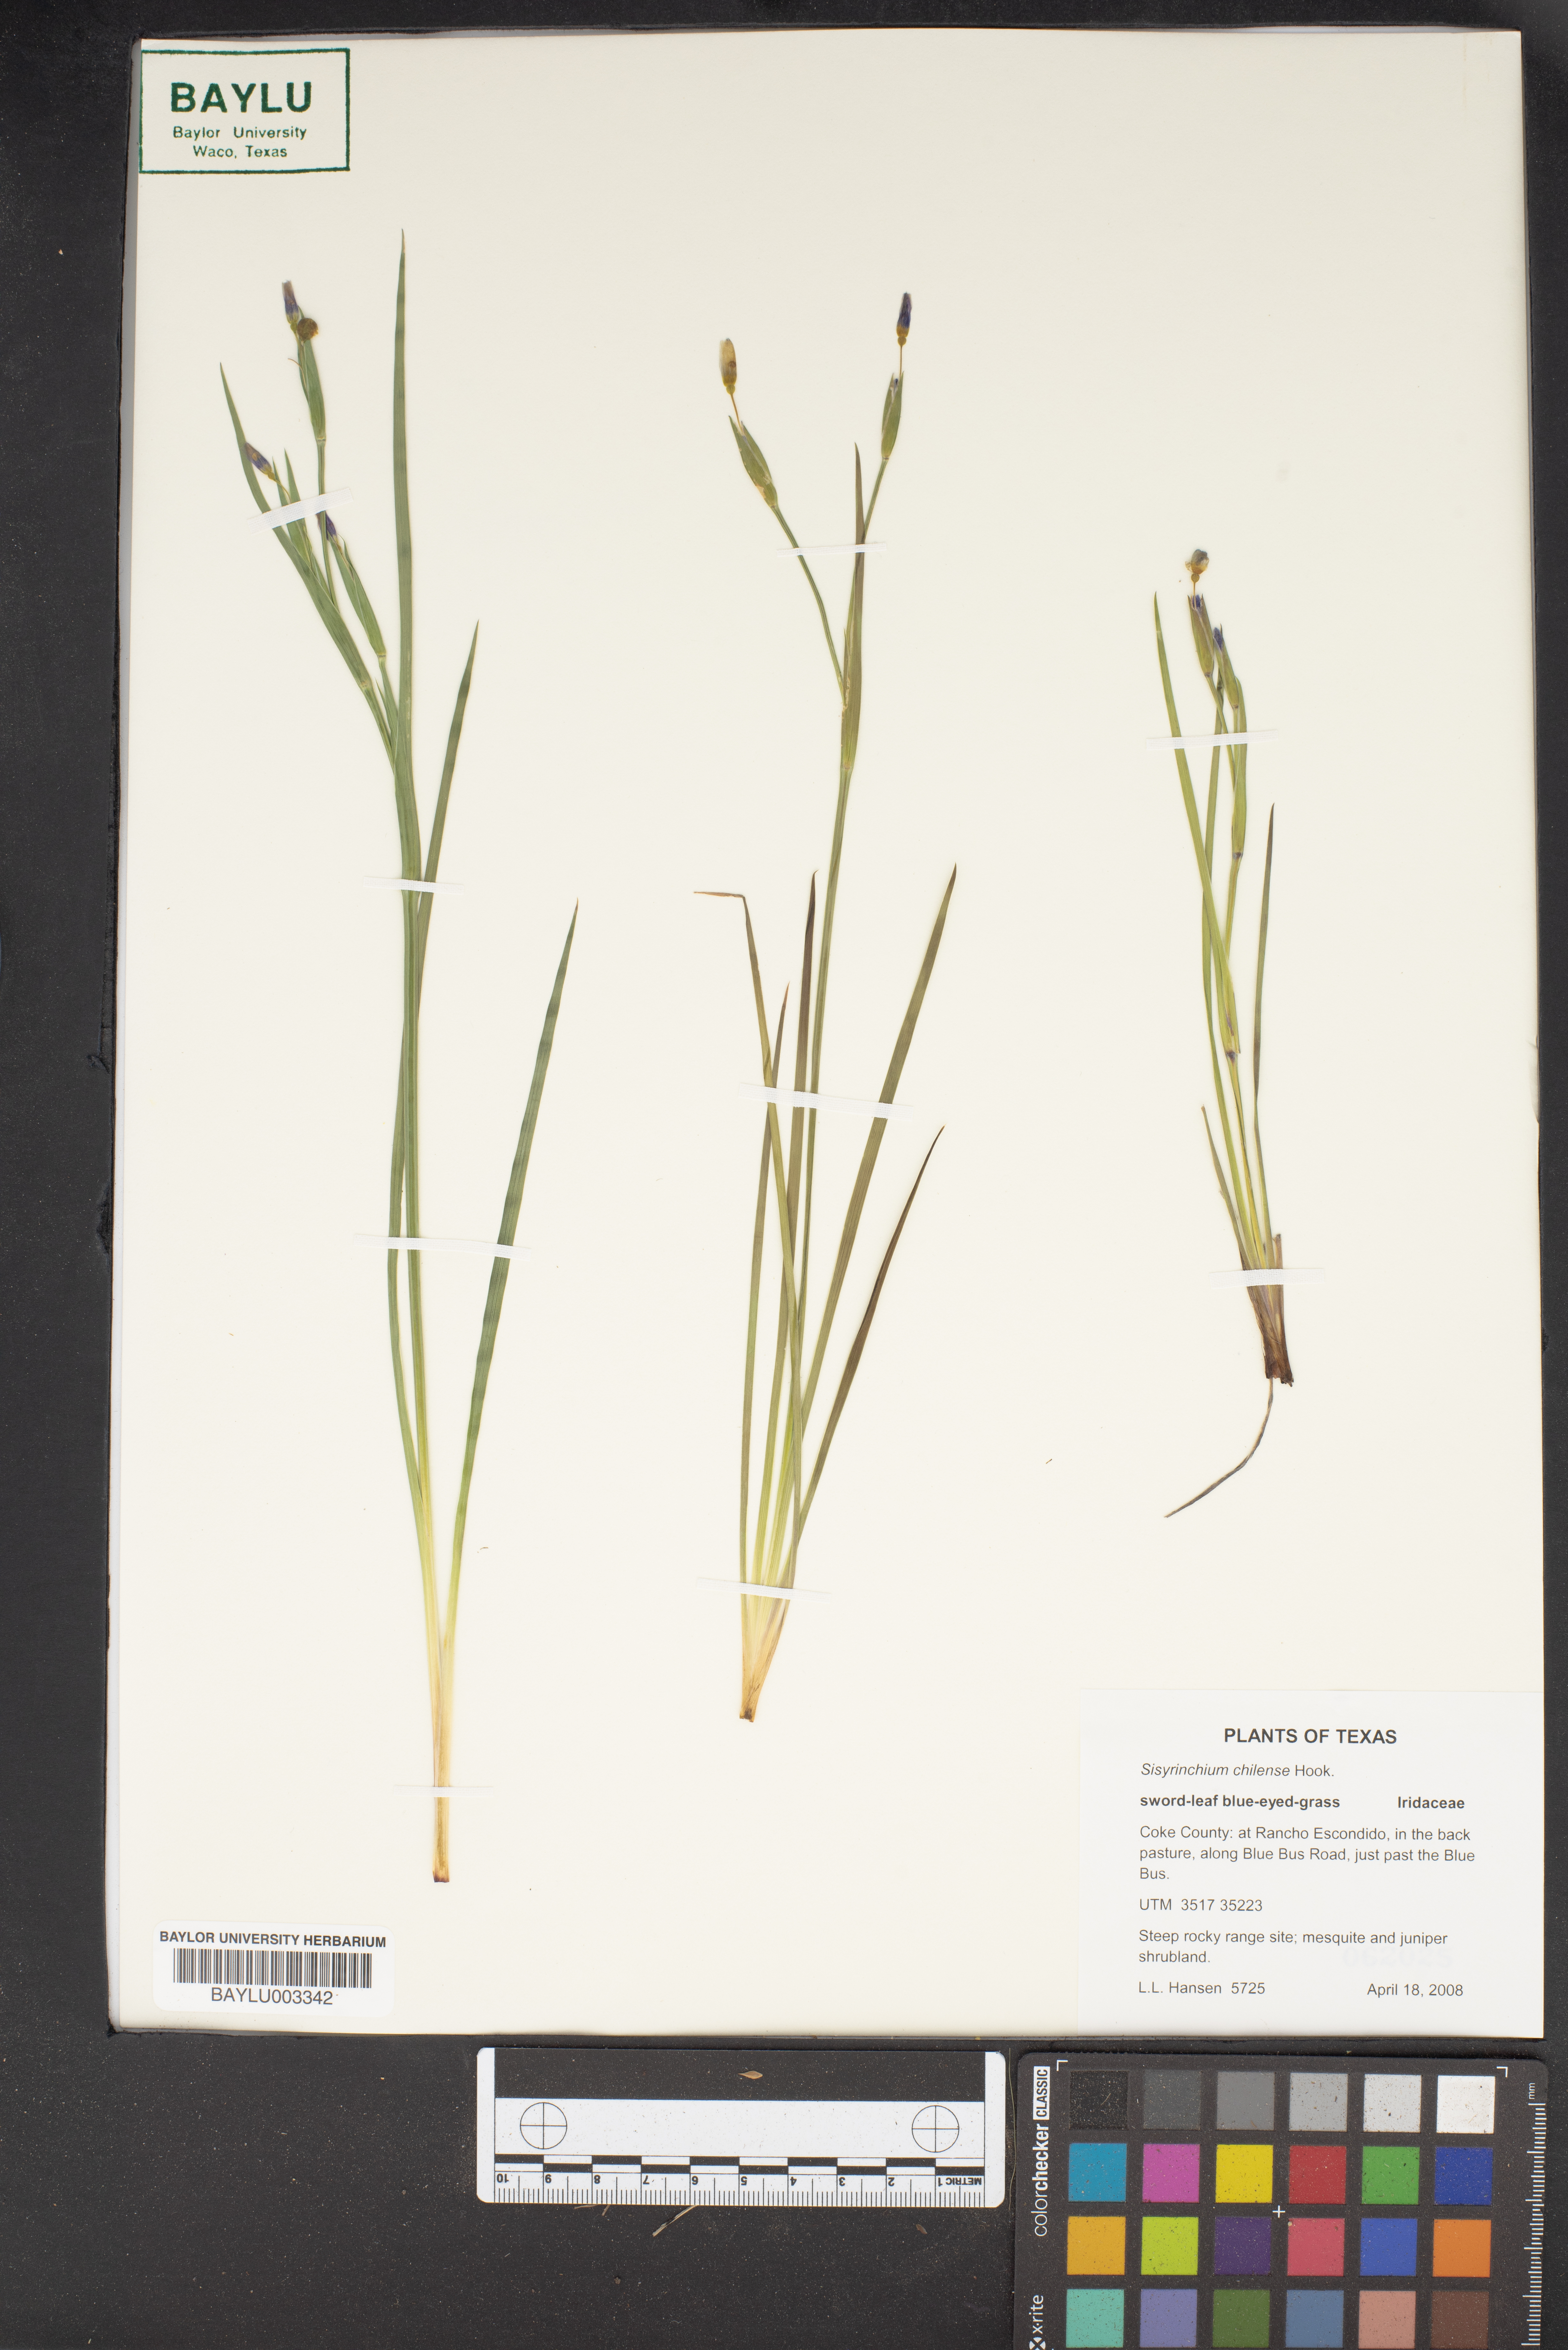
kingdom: Plantae
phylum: Tracheophyta
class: Liliopsida
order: Asparagales
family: Iridaceae
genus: Sisyrinchium
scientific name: Sisyrinchium chilense
